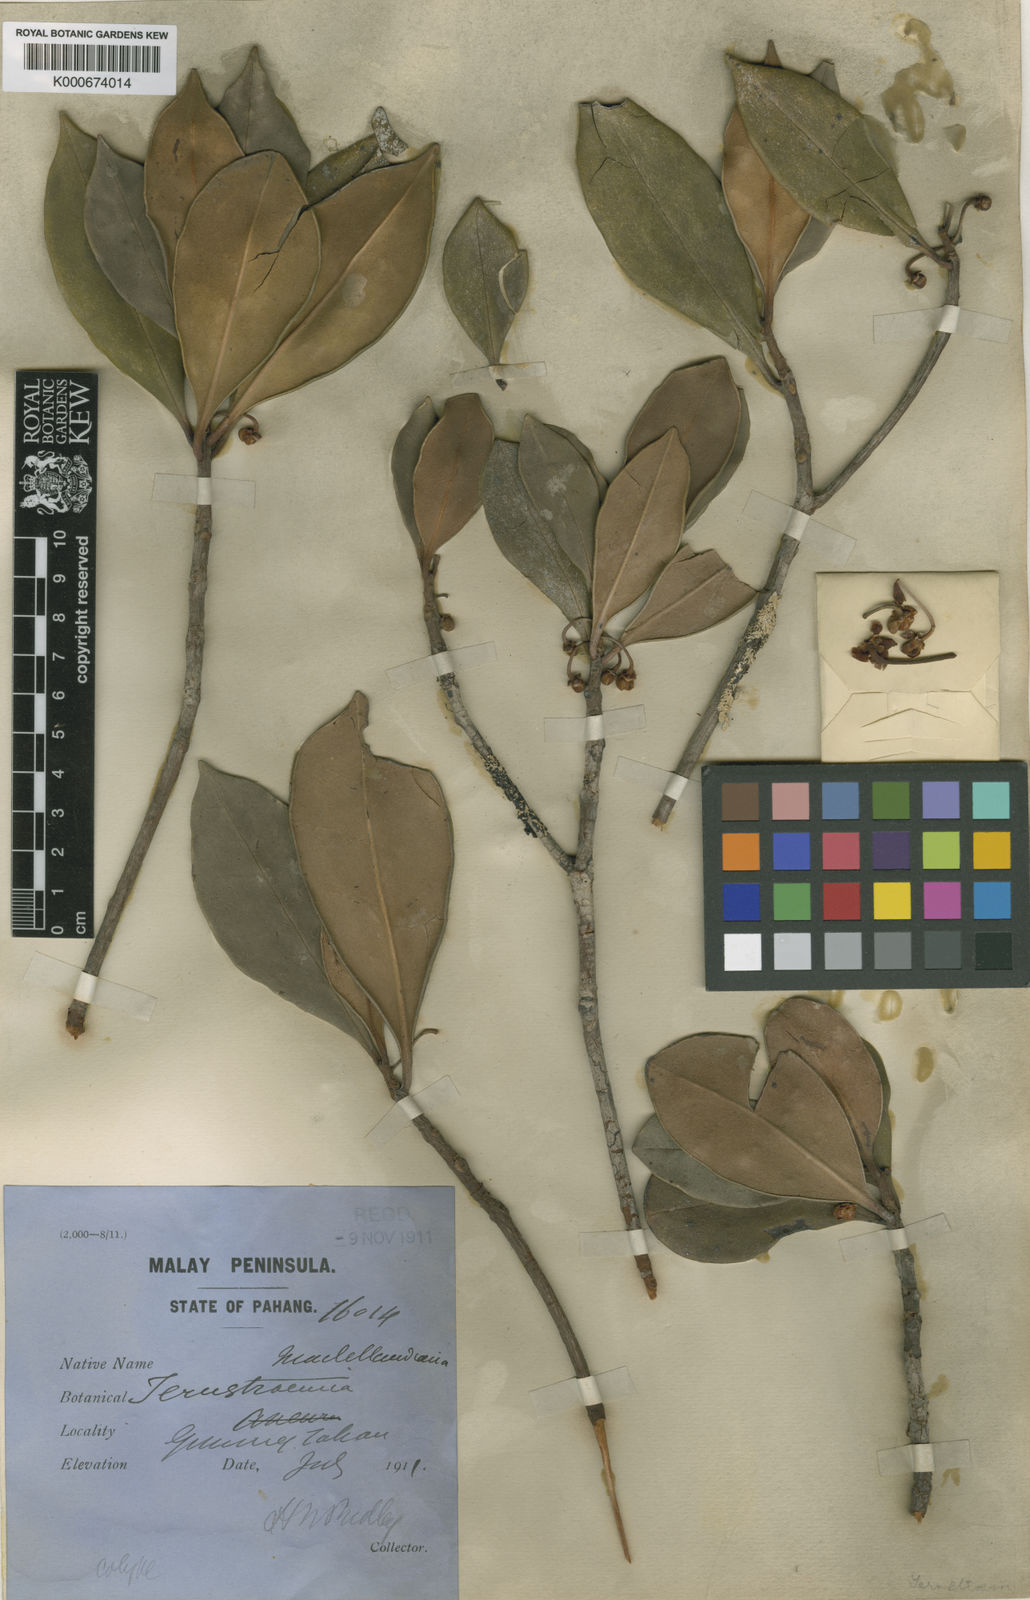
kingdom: Plantae
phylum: Tracheophyta
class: Magnoliopsida
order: Ericales
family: Pentaphylacaceae
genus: Ternstroemia
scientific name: Ternstroemia maclellandiana
